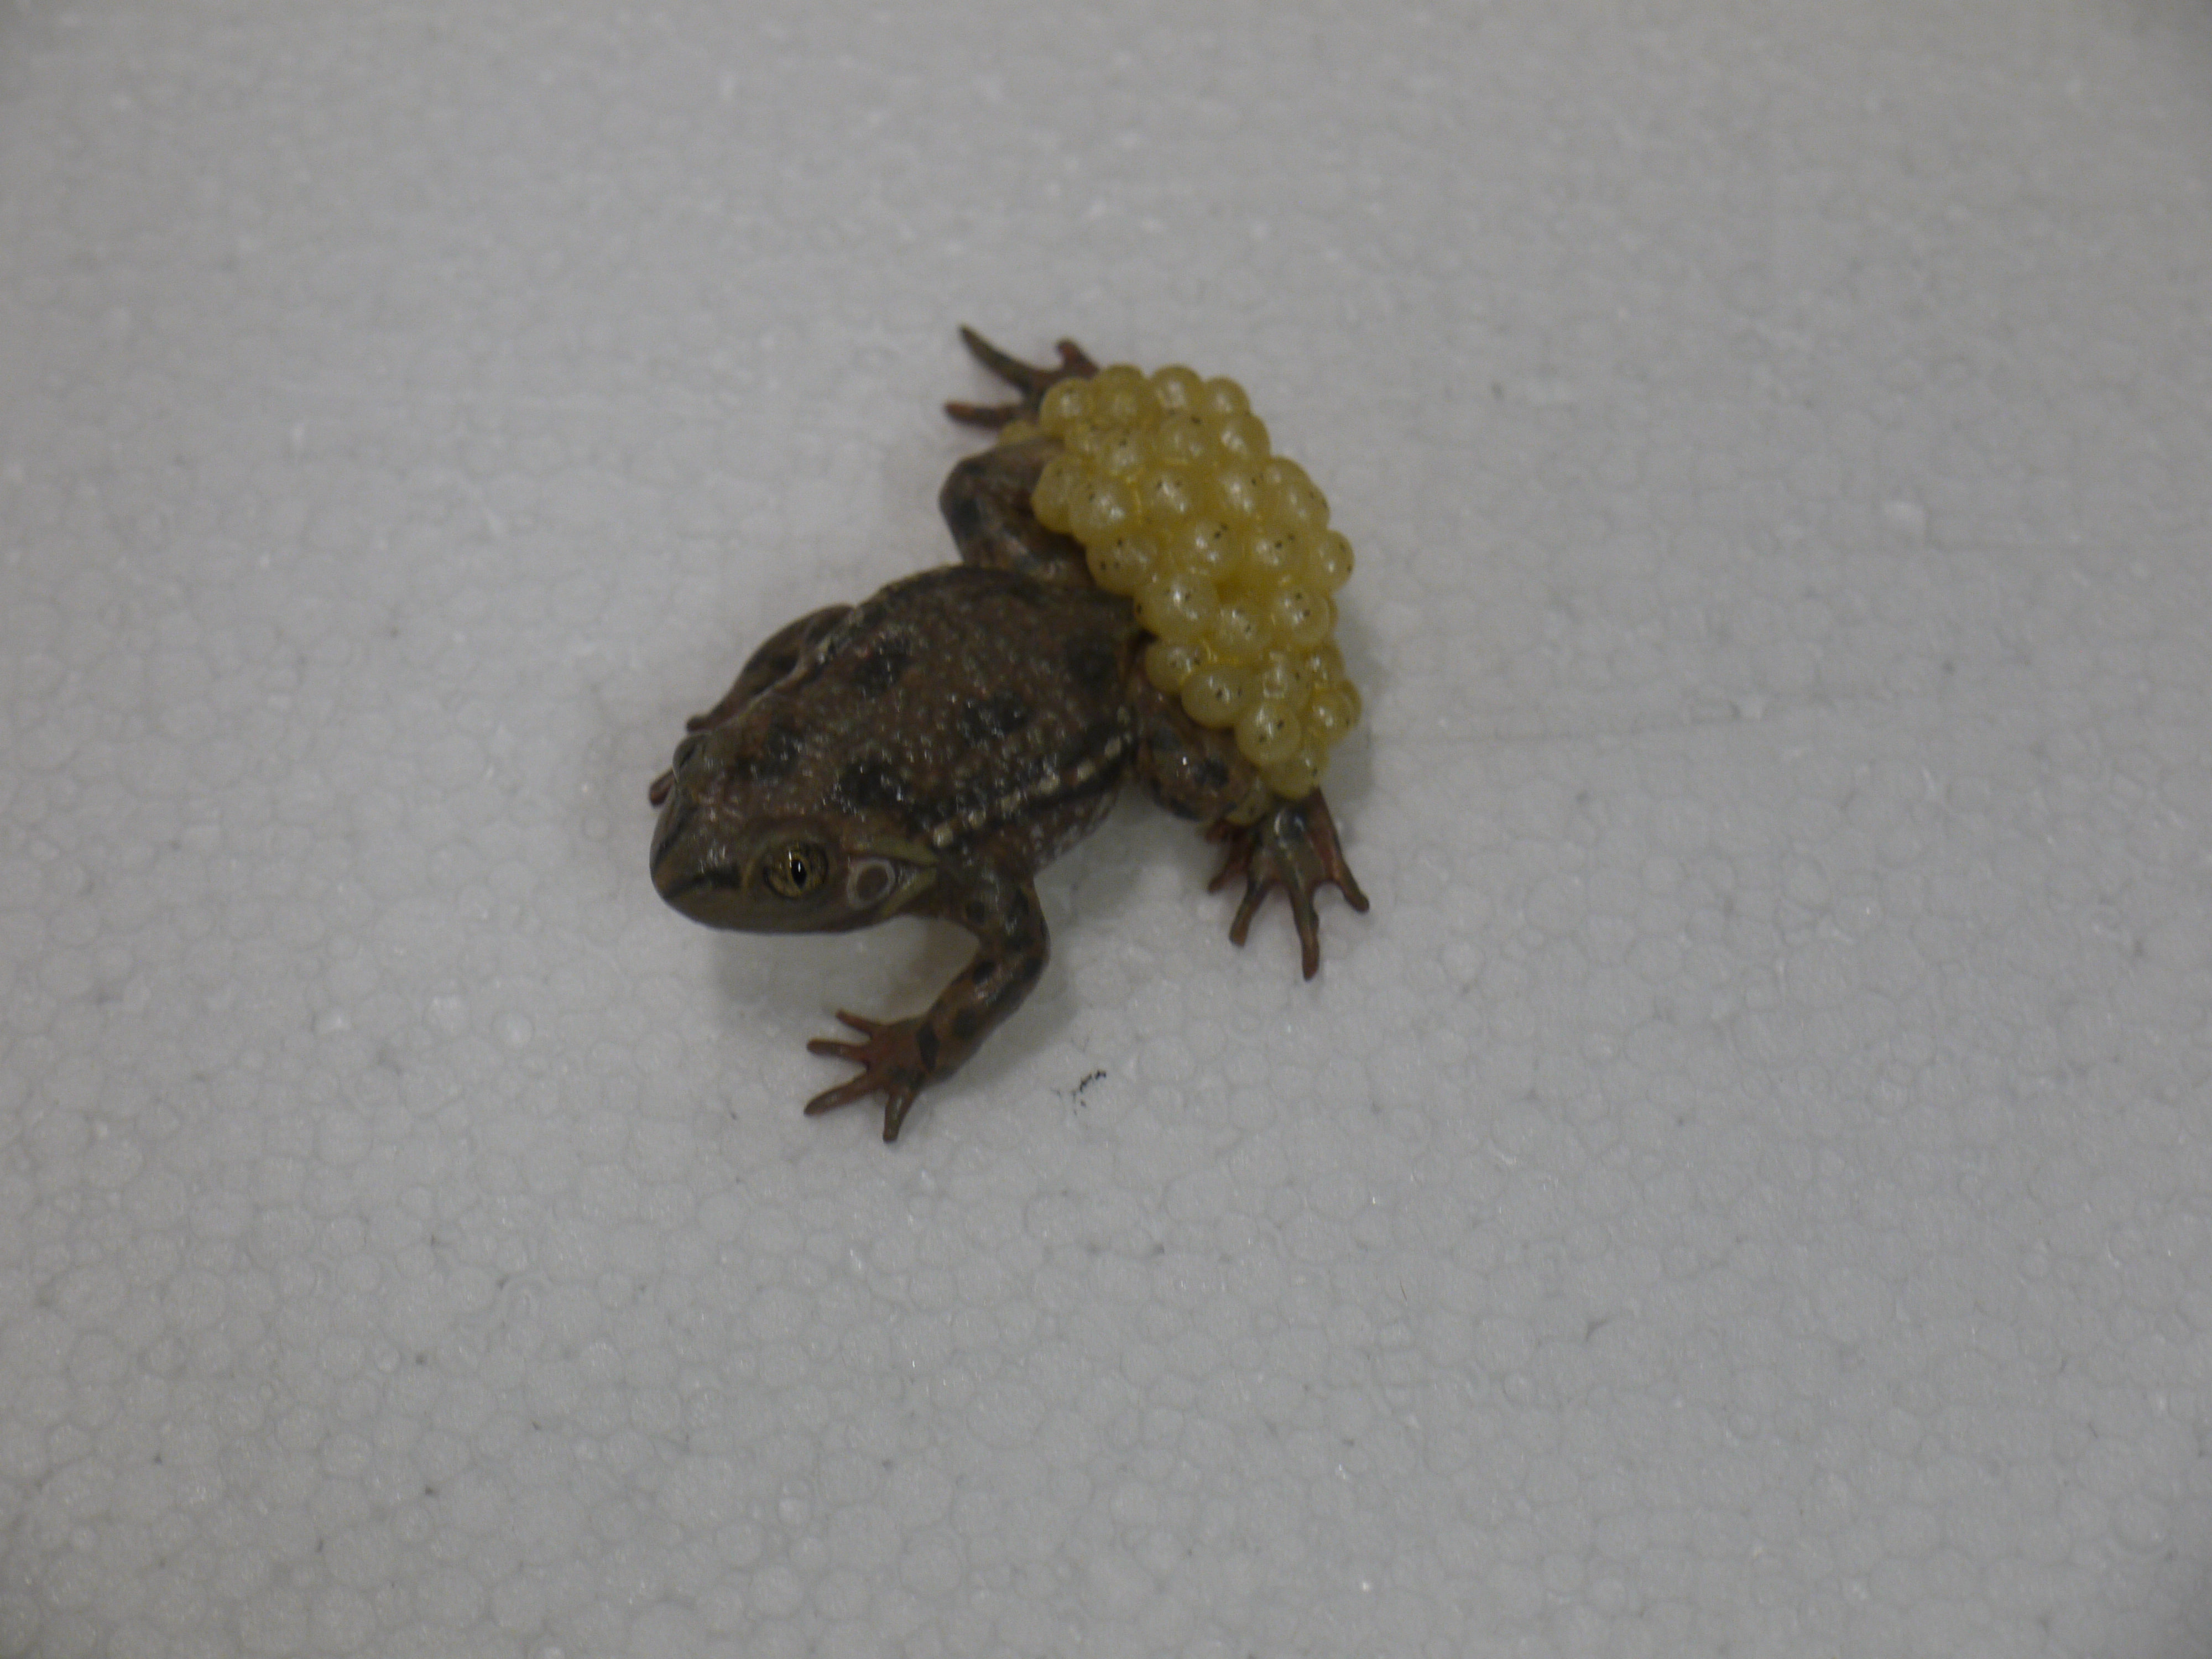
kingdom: Animalia
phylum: Chordata
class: Amphibia
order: Anura
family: Alytidae
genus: Alytes
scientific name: Alytes obstetricans
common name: Midwife toad
